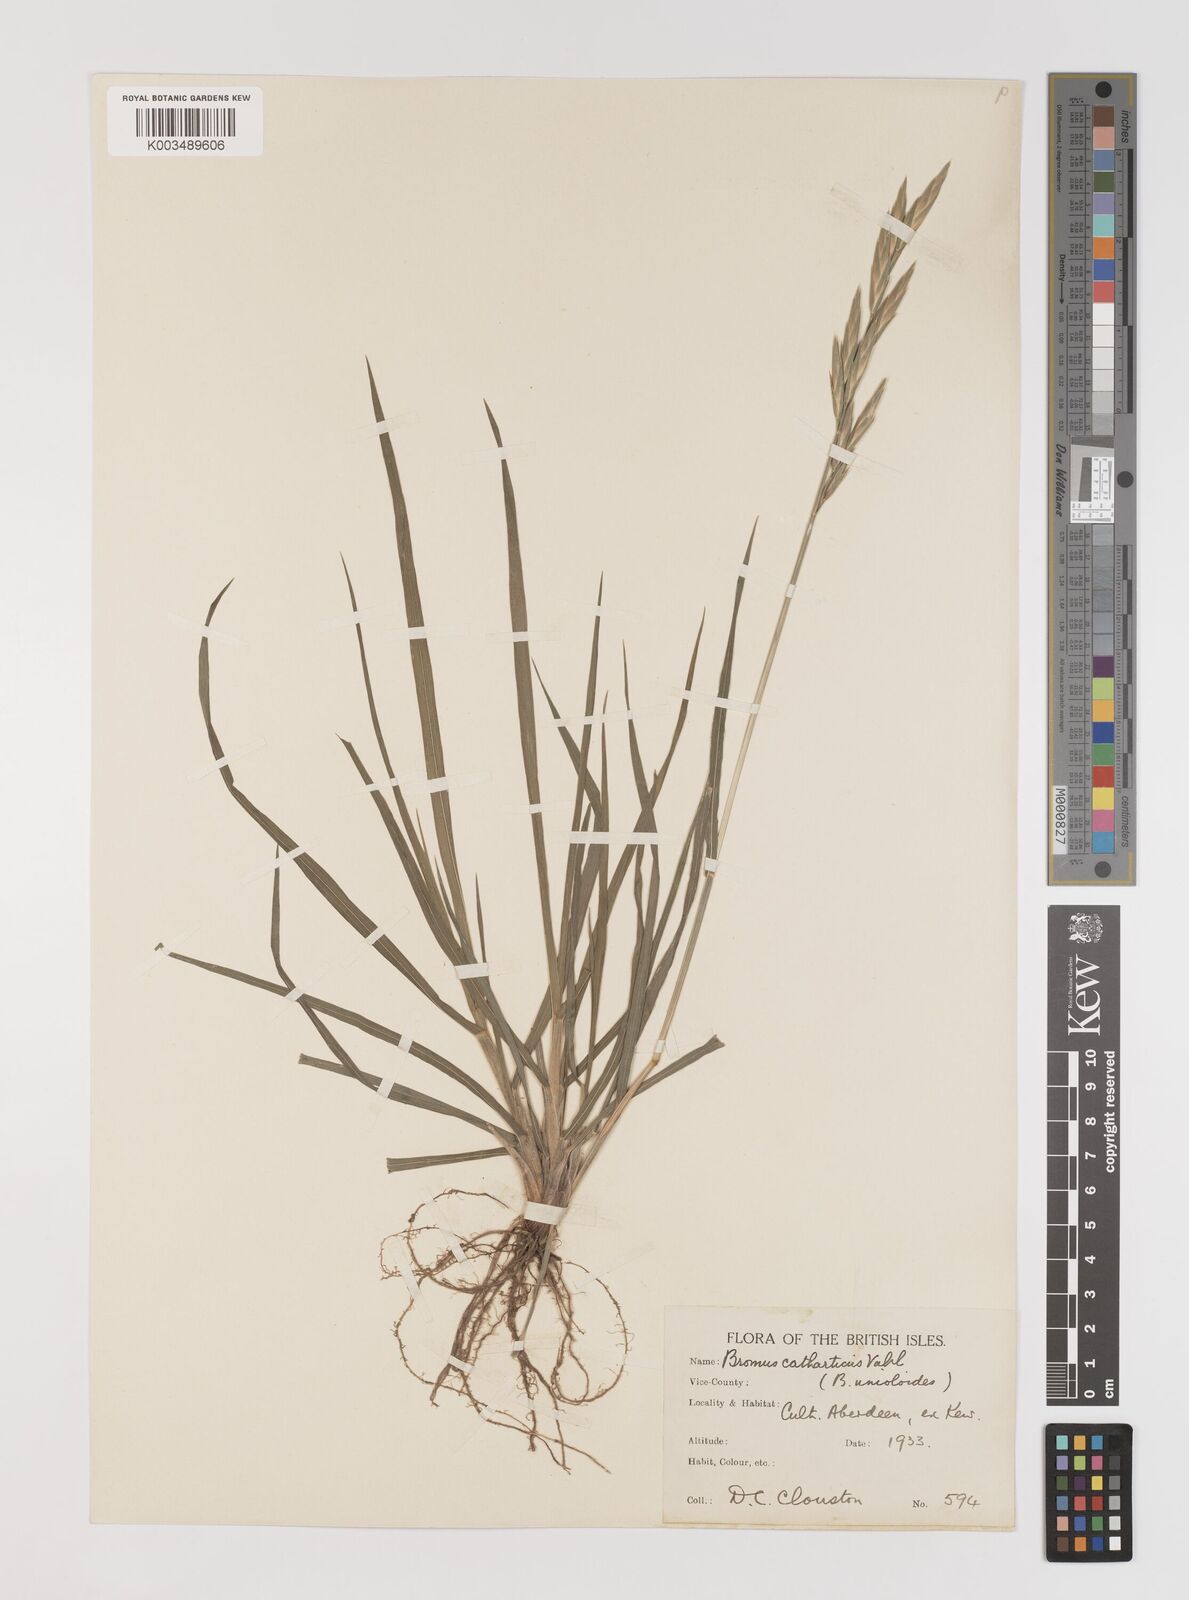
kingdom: Plantae
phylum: Tracheophyta
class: Liliopsida
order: Poales
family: Poaceae
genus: Bromus
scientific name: Bromus catharticus
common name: Rescuegrass
